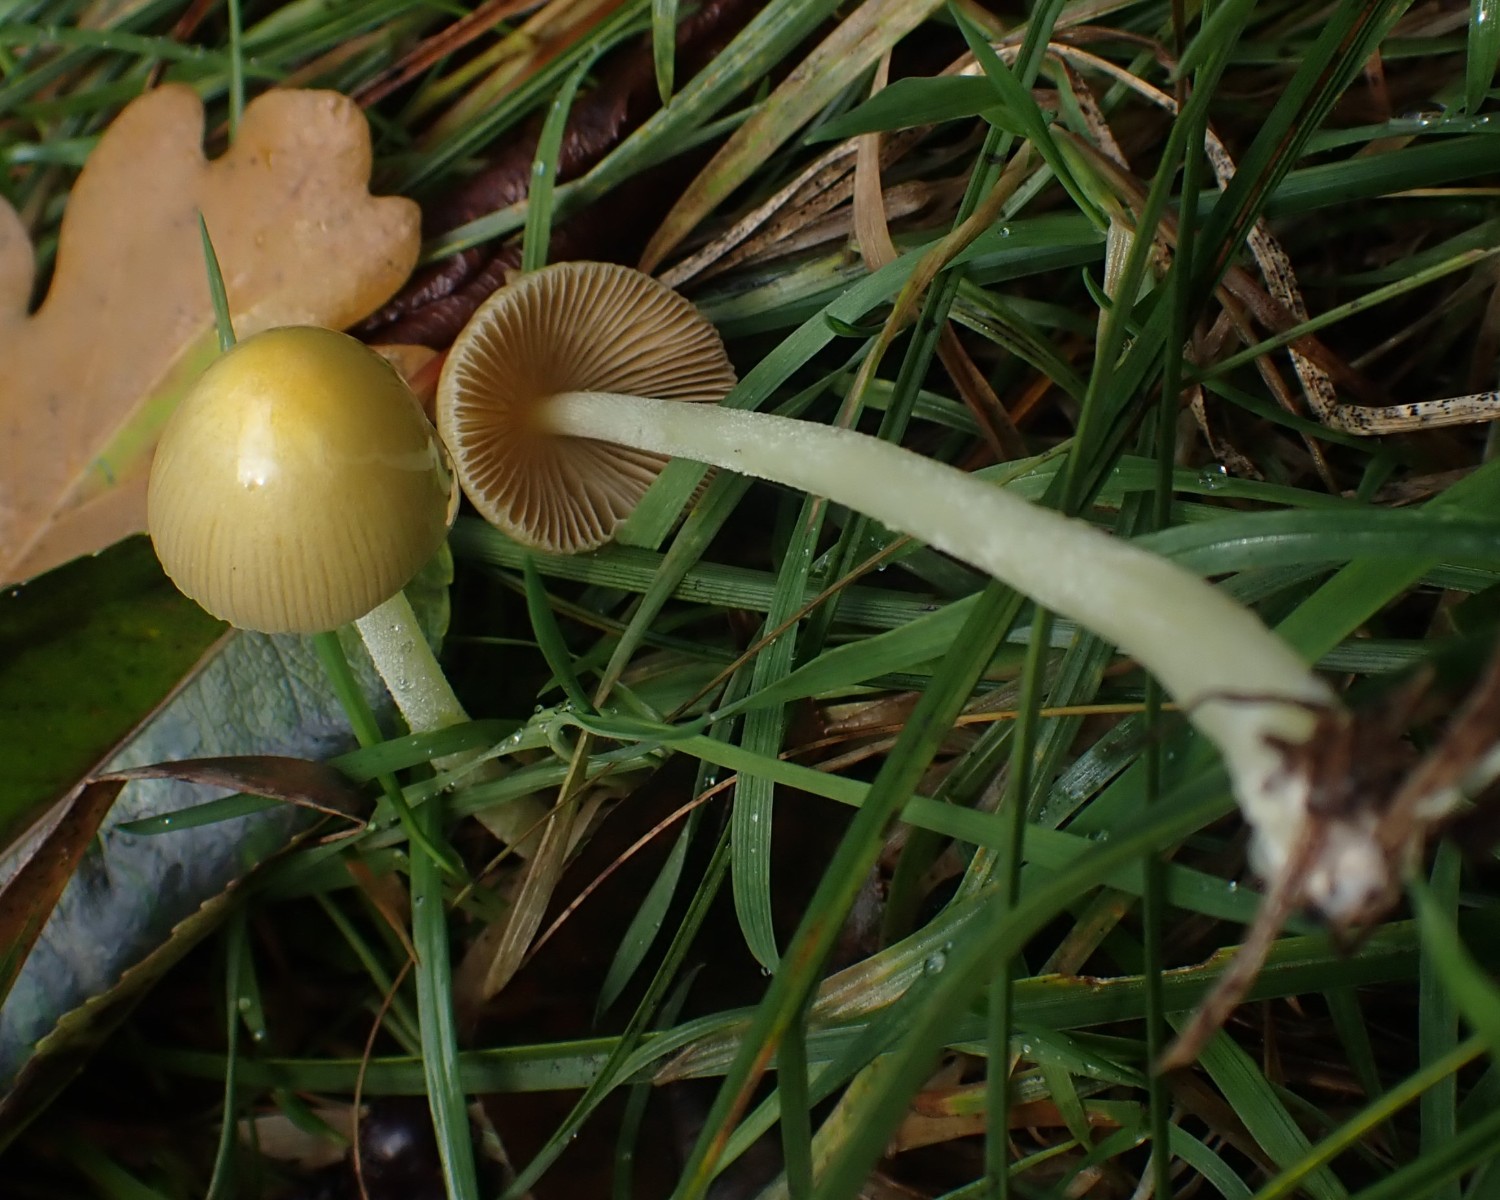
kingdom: Fungi
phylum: Basidiomycota
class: Agaricomycetes
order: Agaricales
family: Bolbitiaceae
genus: Bolbitius
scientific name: Bolbitius titubans
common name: almindelig gulhat
